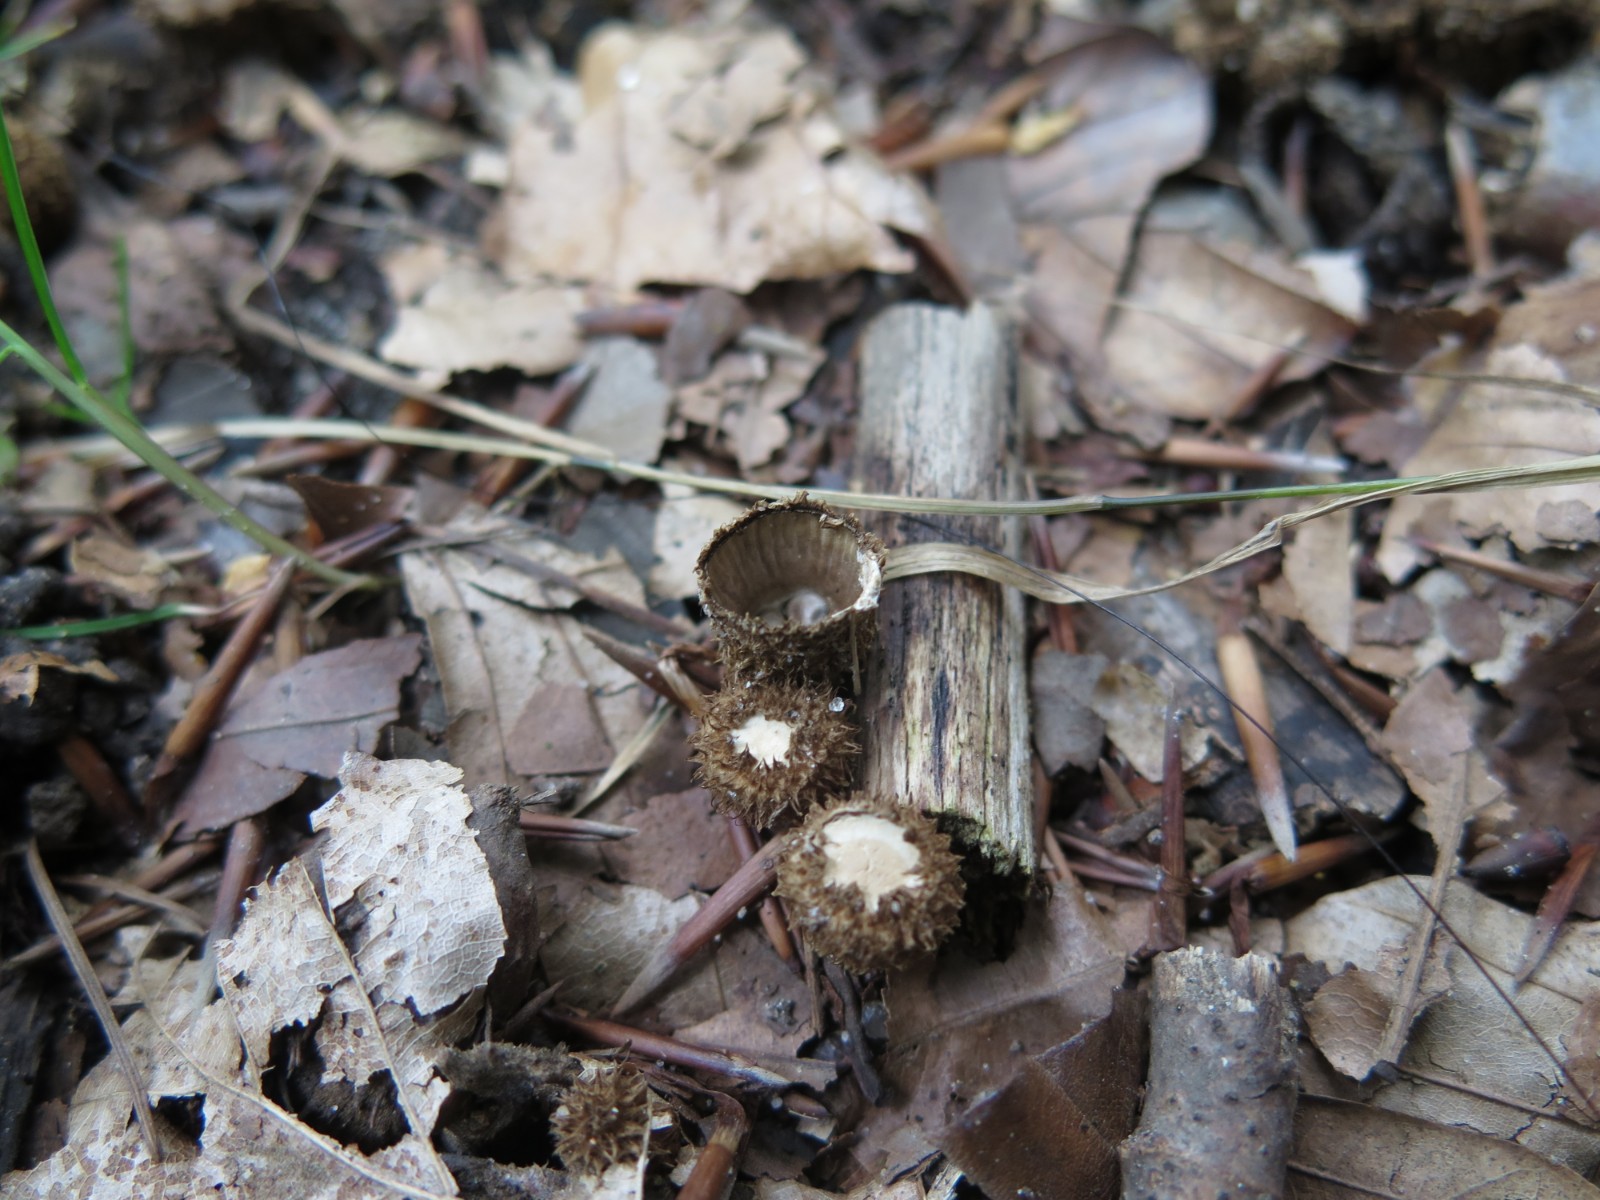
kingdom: Fungi
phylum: Basidiomycota
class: Agaricomycetes
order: Agaricales
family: Agaricaceae
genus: Cyathus
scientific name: Cyathus striatus
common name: stribet redesvamp
